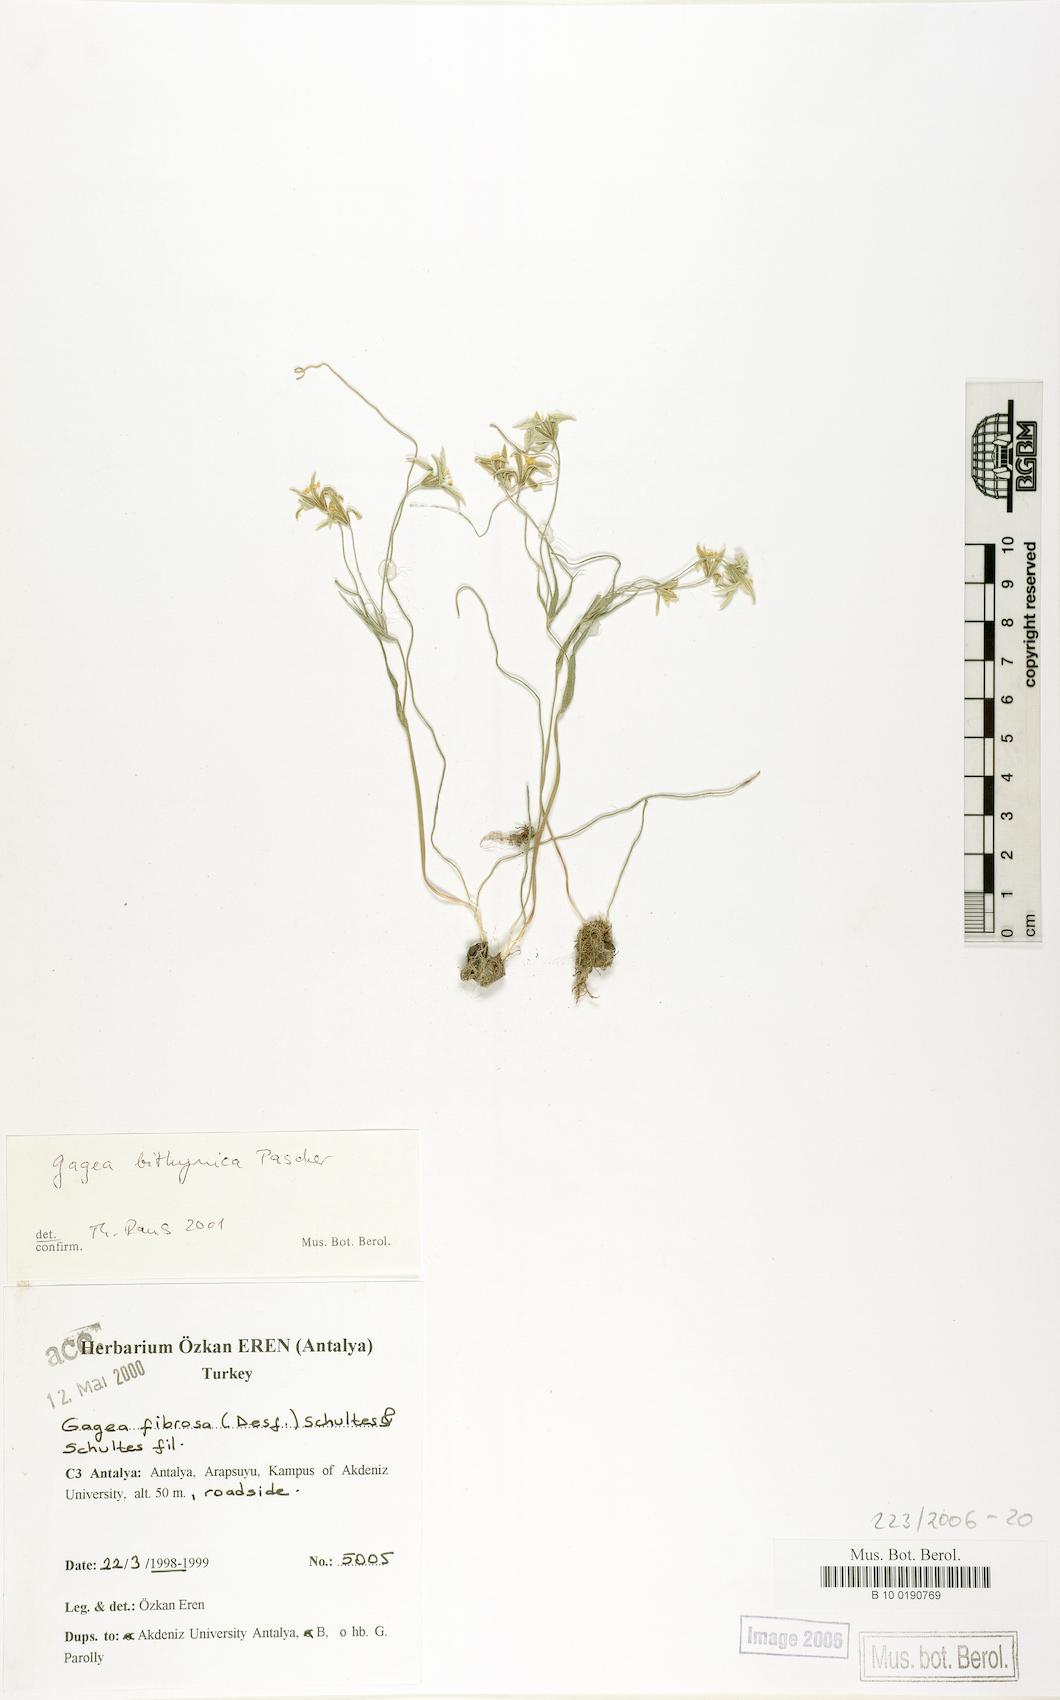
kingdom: Plantae
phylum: Tracheophyta
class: Liliopsida
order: Liliales
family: Liliaceae
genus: Gagea
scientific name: Gagea bithynica
